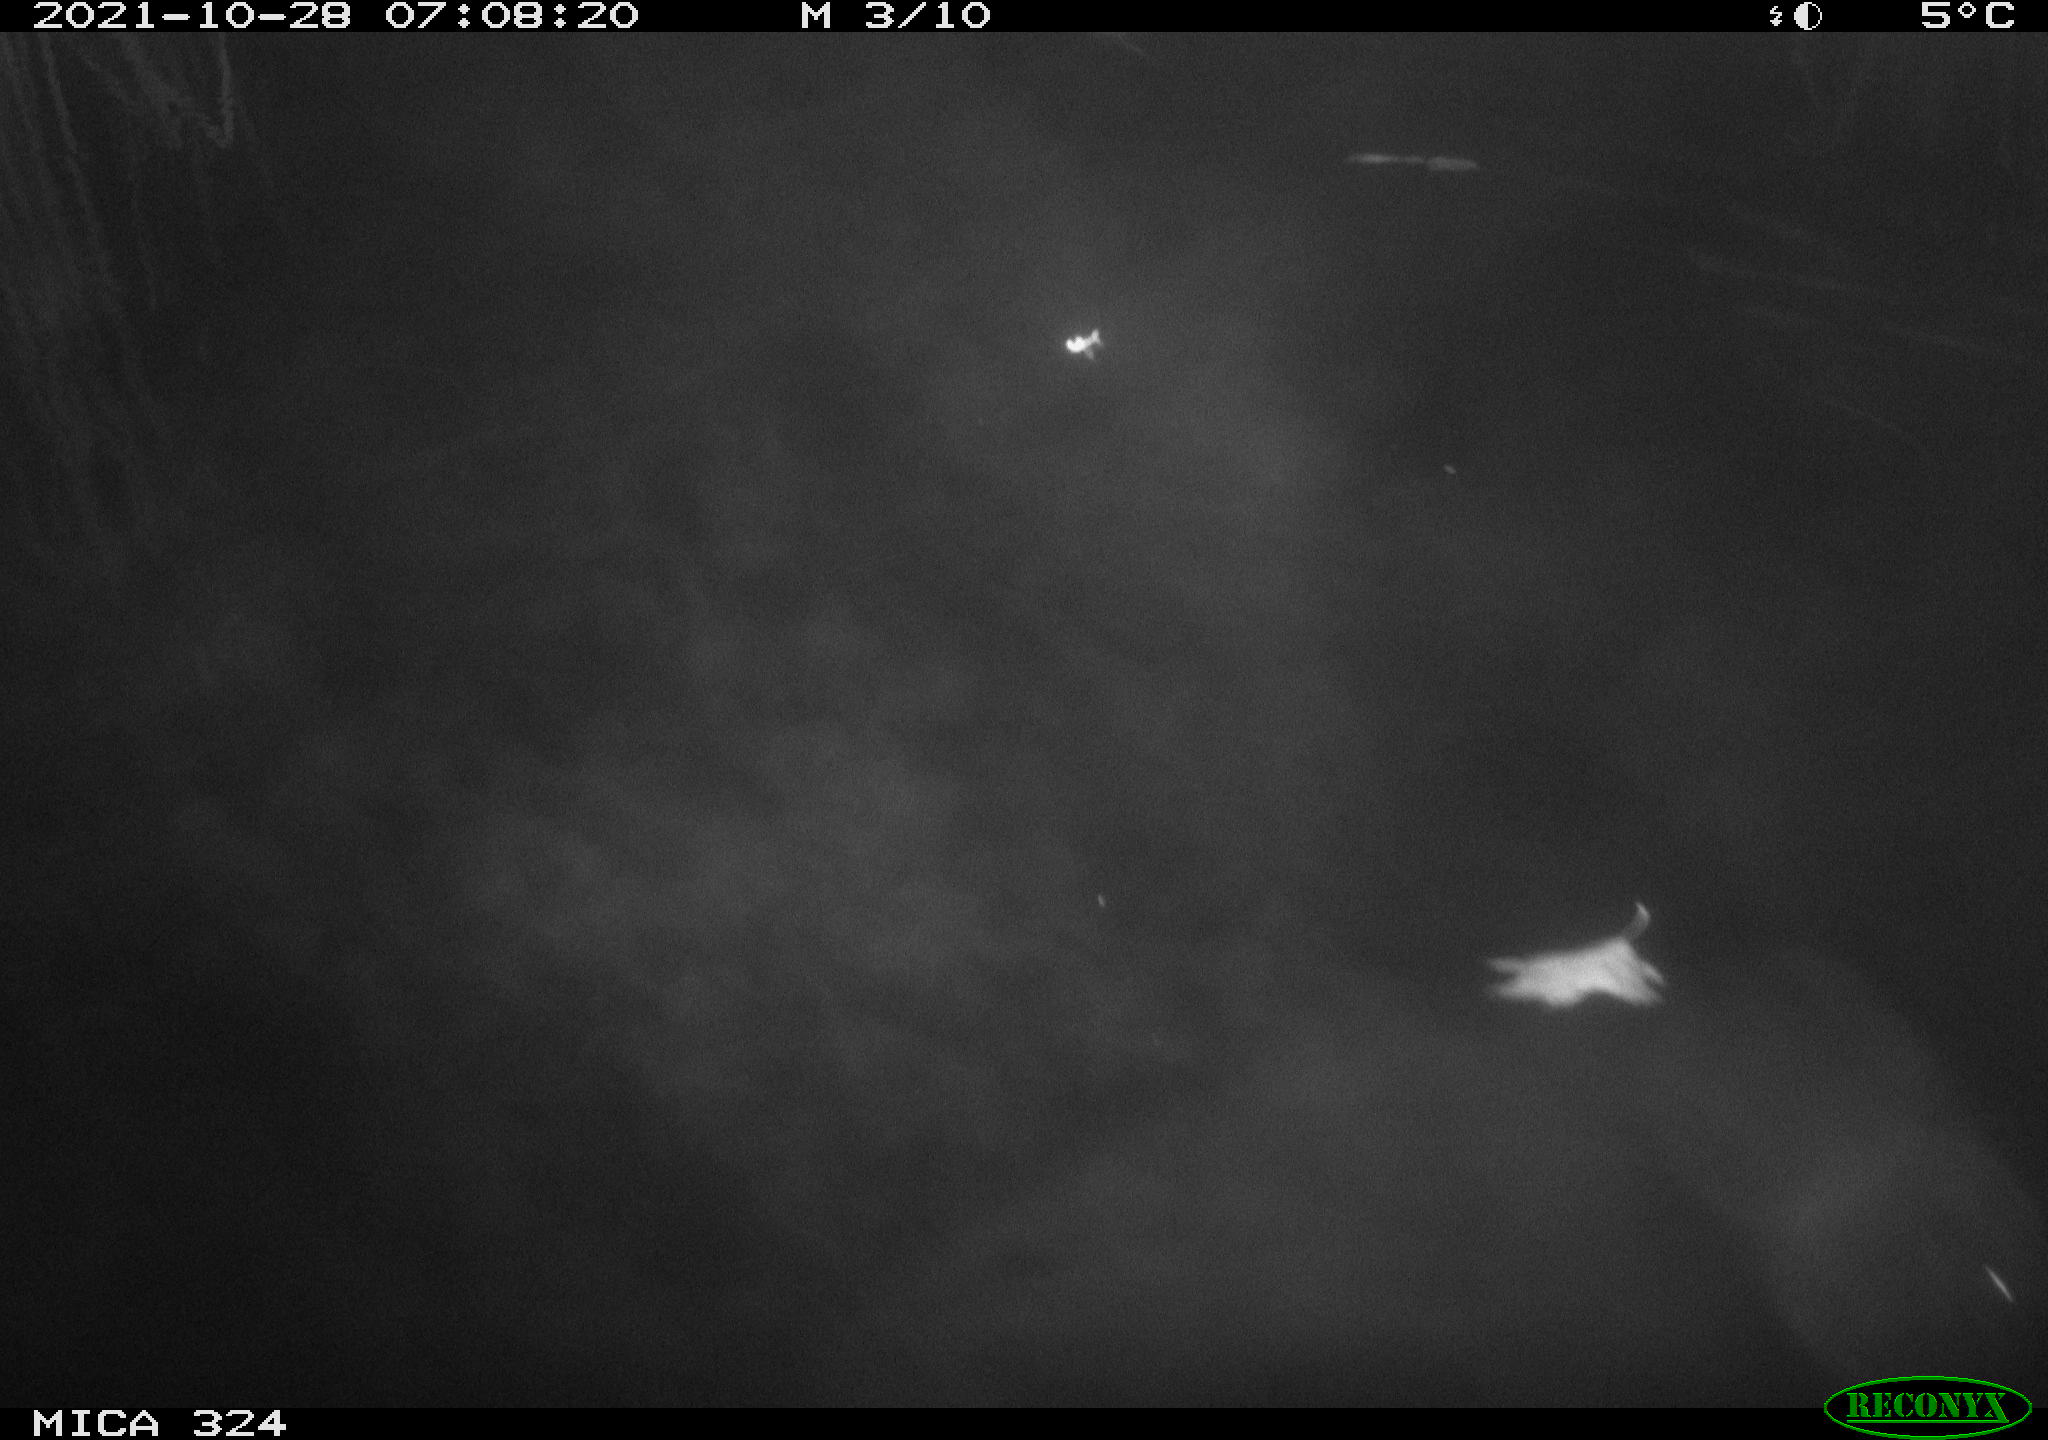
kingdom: Animalia
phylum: Chordata
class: Mammalia
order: Rodentia
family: Cricetidae
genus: Ondatra
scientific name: Ondatra zibethicus
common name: Muskrat
